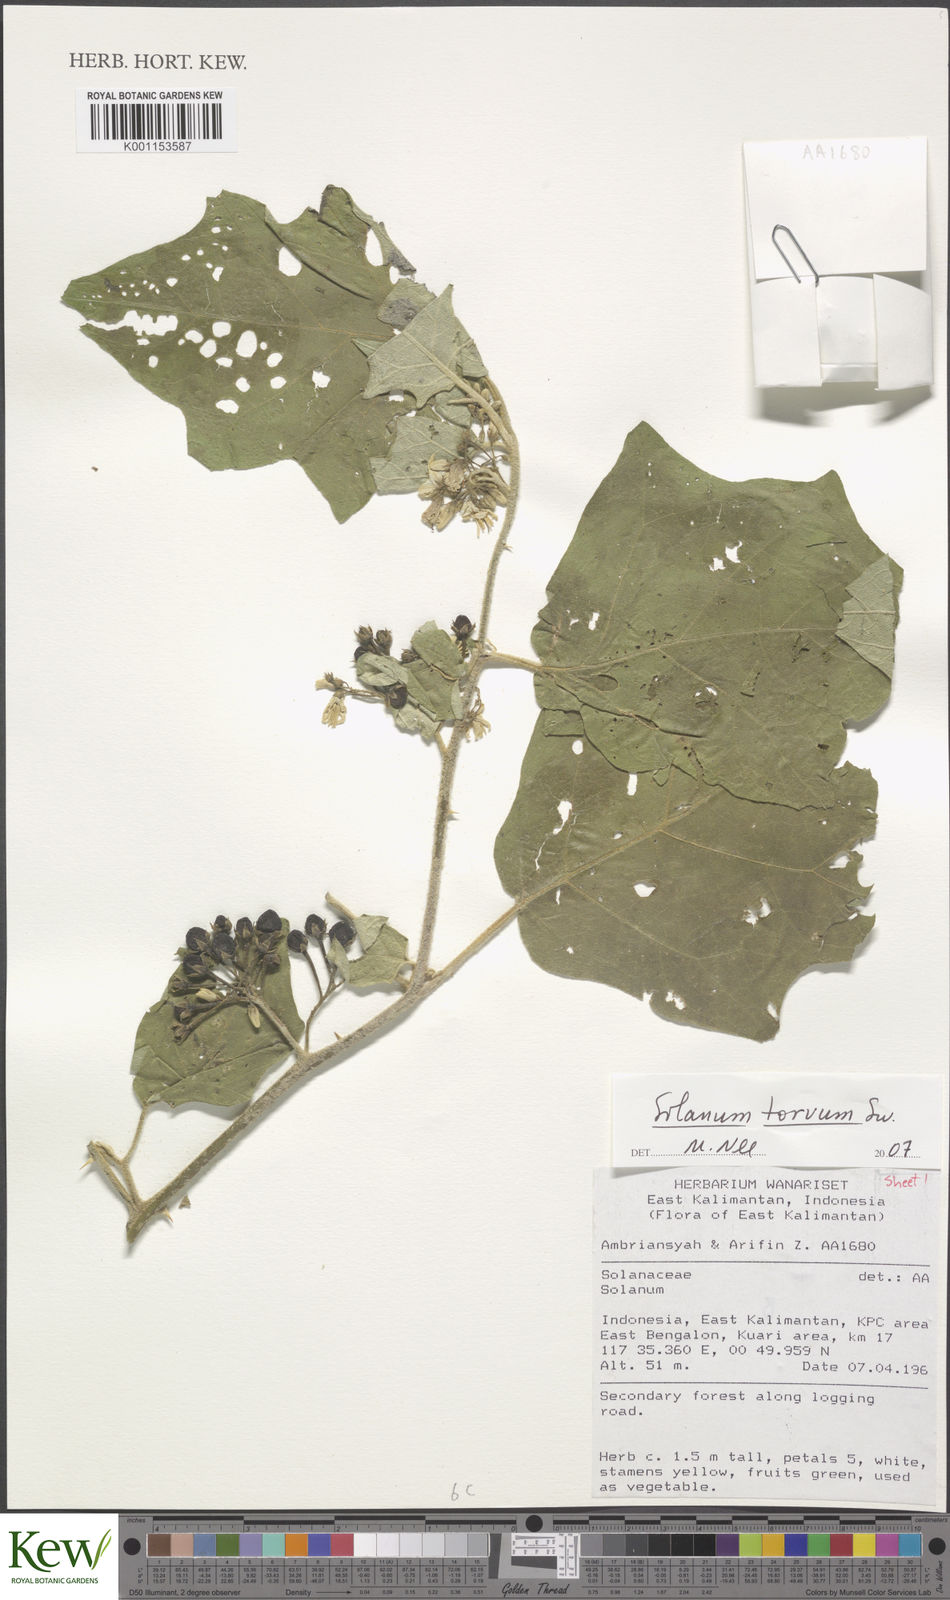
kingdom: Plantae
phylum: Tracheophyta
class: Magnoliopsida
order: Solanales
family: Solanaceae
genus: Solanum
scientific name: Solanum torvum
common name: Turkey berry
